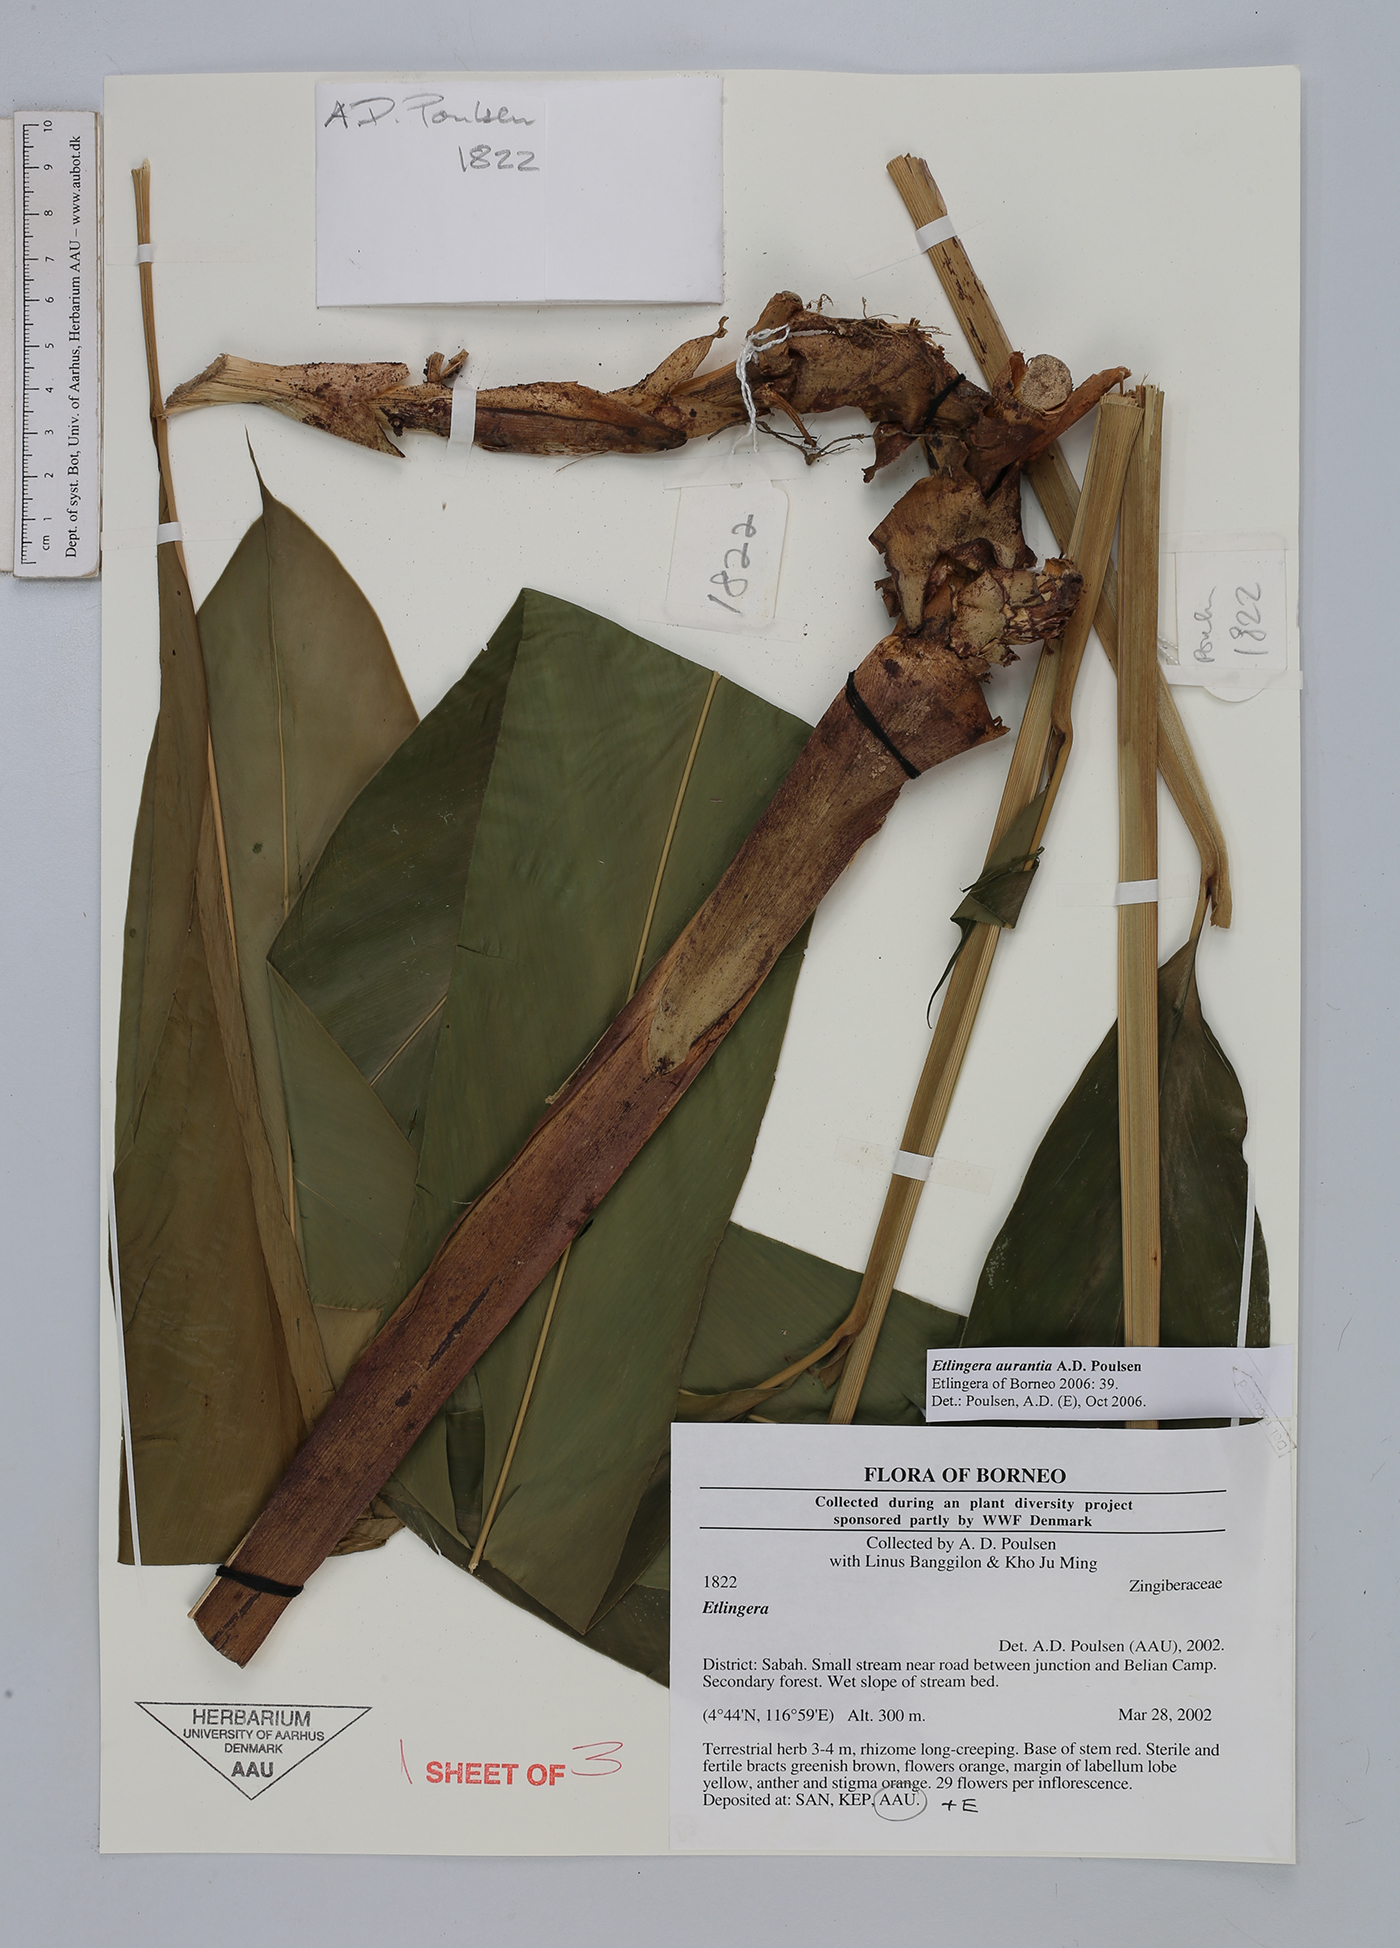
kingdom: Plantae
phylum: Tracheophyta
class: Liliopsida
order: Zingiberales
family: Zingiberaceae
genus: Etlingera
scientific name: Etlingera aurantia
